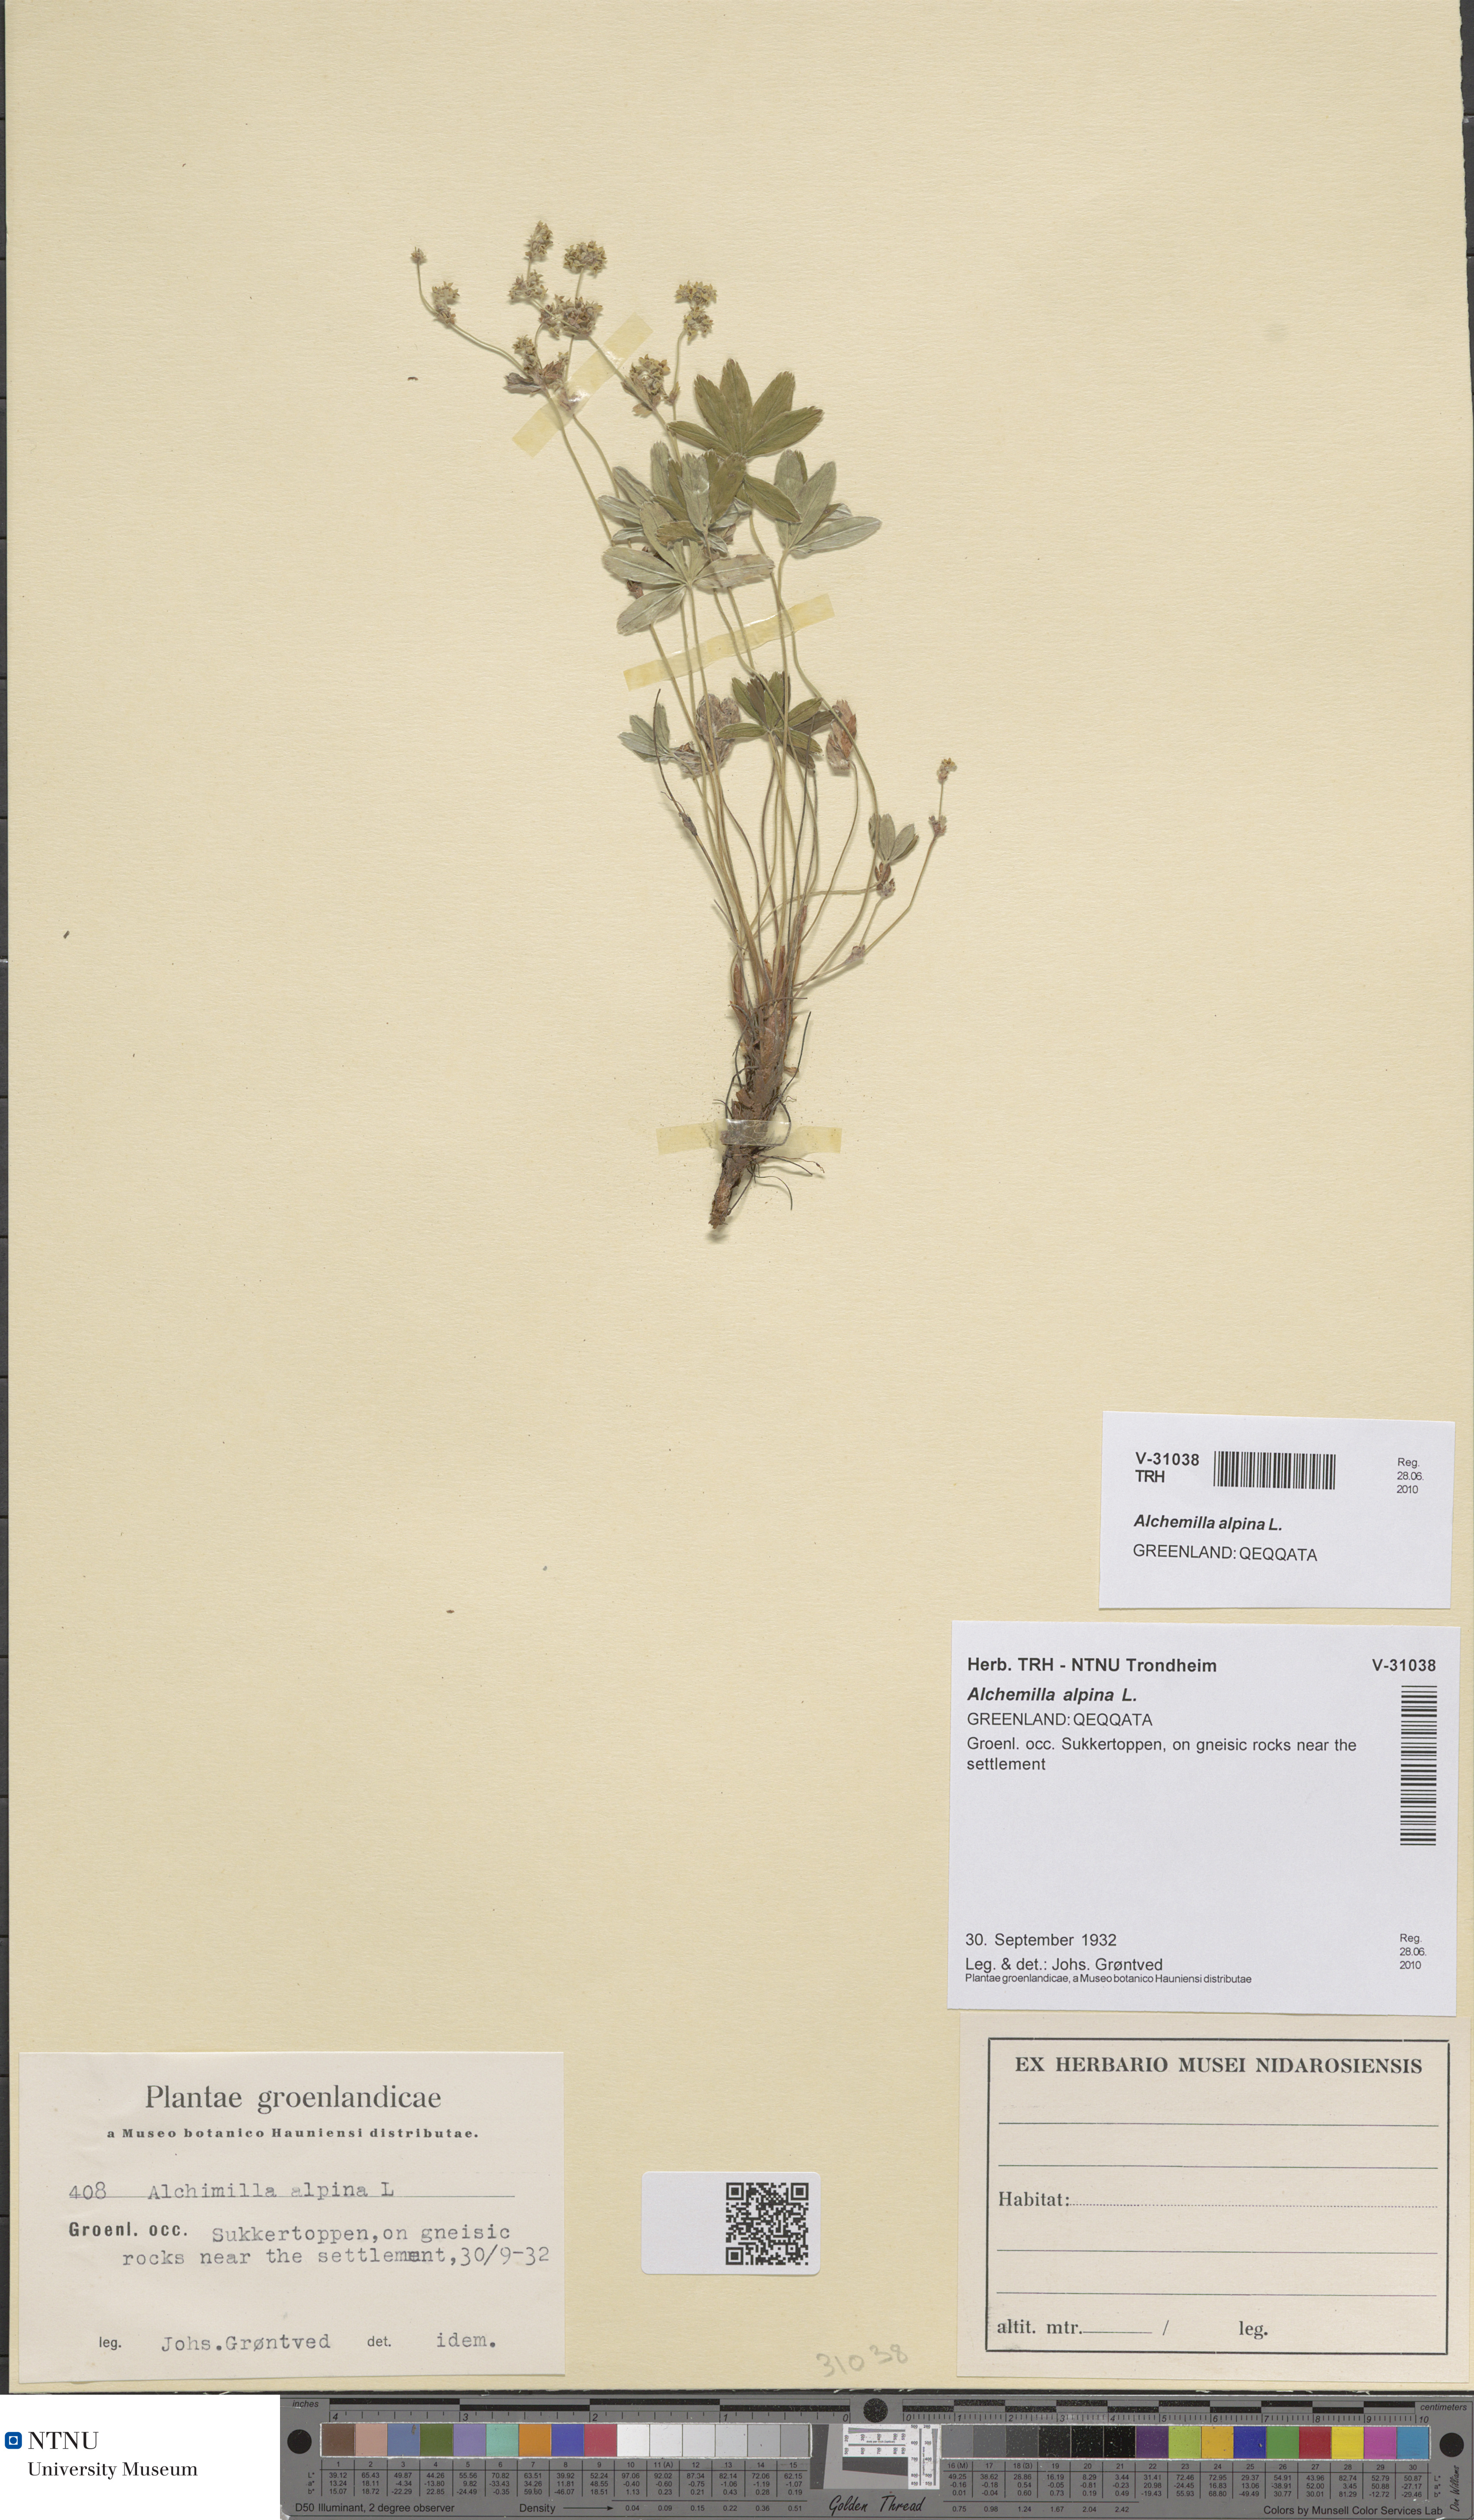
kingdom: Plantae
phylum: Tracheophyta
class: Magnoliopsida
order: Rosales
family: Rosaceae
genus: Alchemilla
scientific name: Alchemilla alpina
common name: Alpine lady's-mantle
